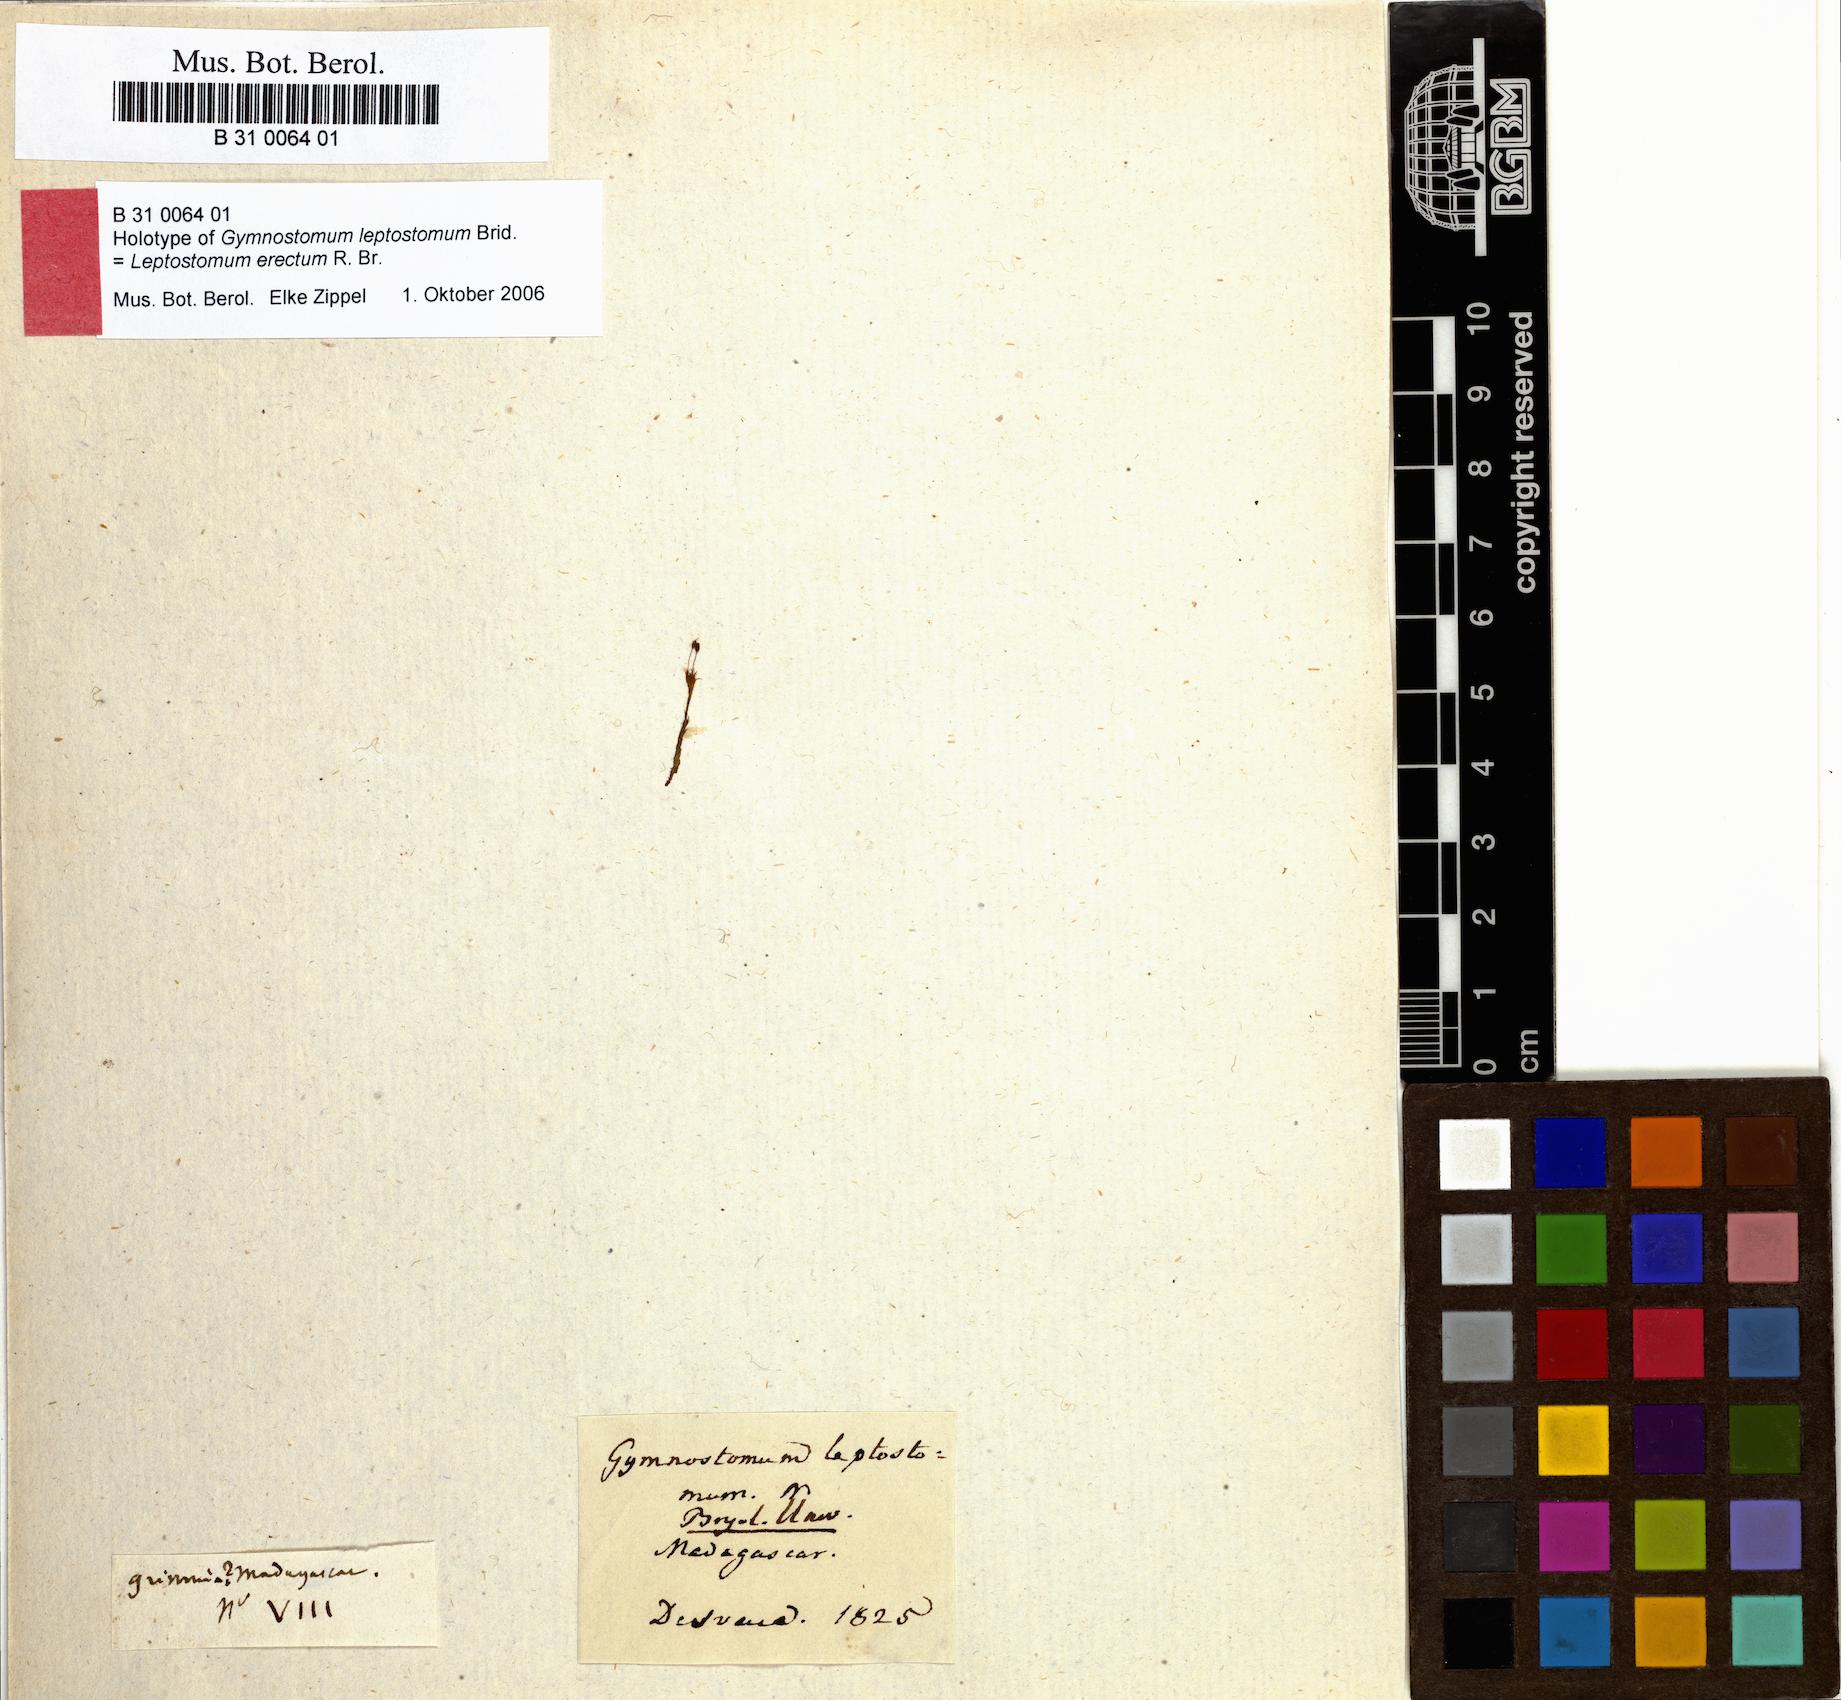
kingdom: Plantae
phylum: Bryophyta
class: Bryopsida
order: Pottiales
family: Pottiaceae
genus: Gymnostomum
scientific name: Gymnostomum madagascariense
